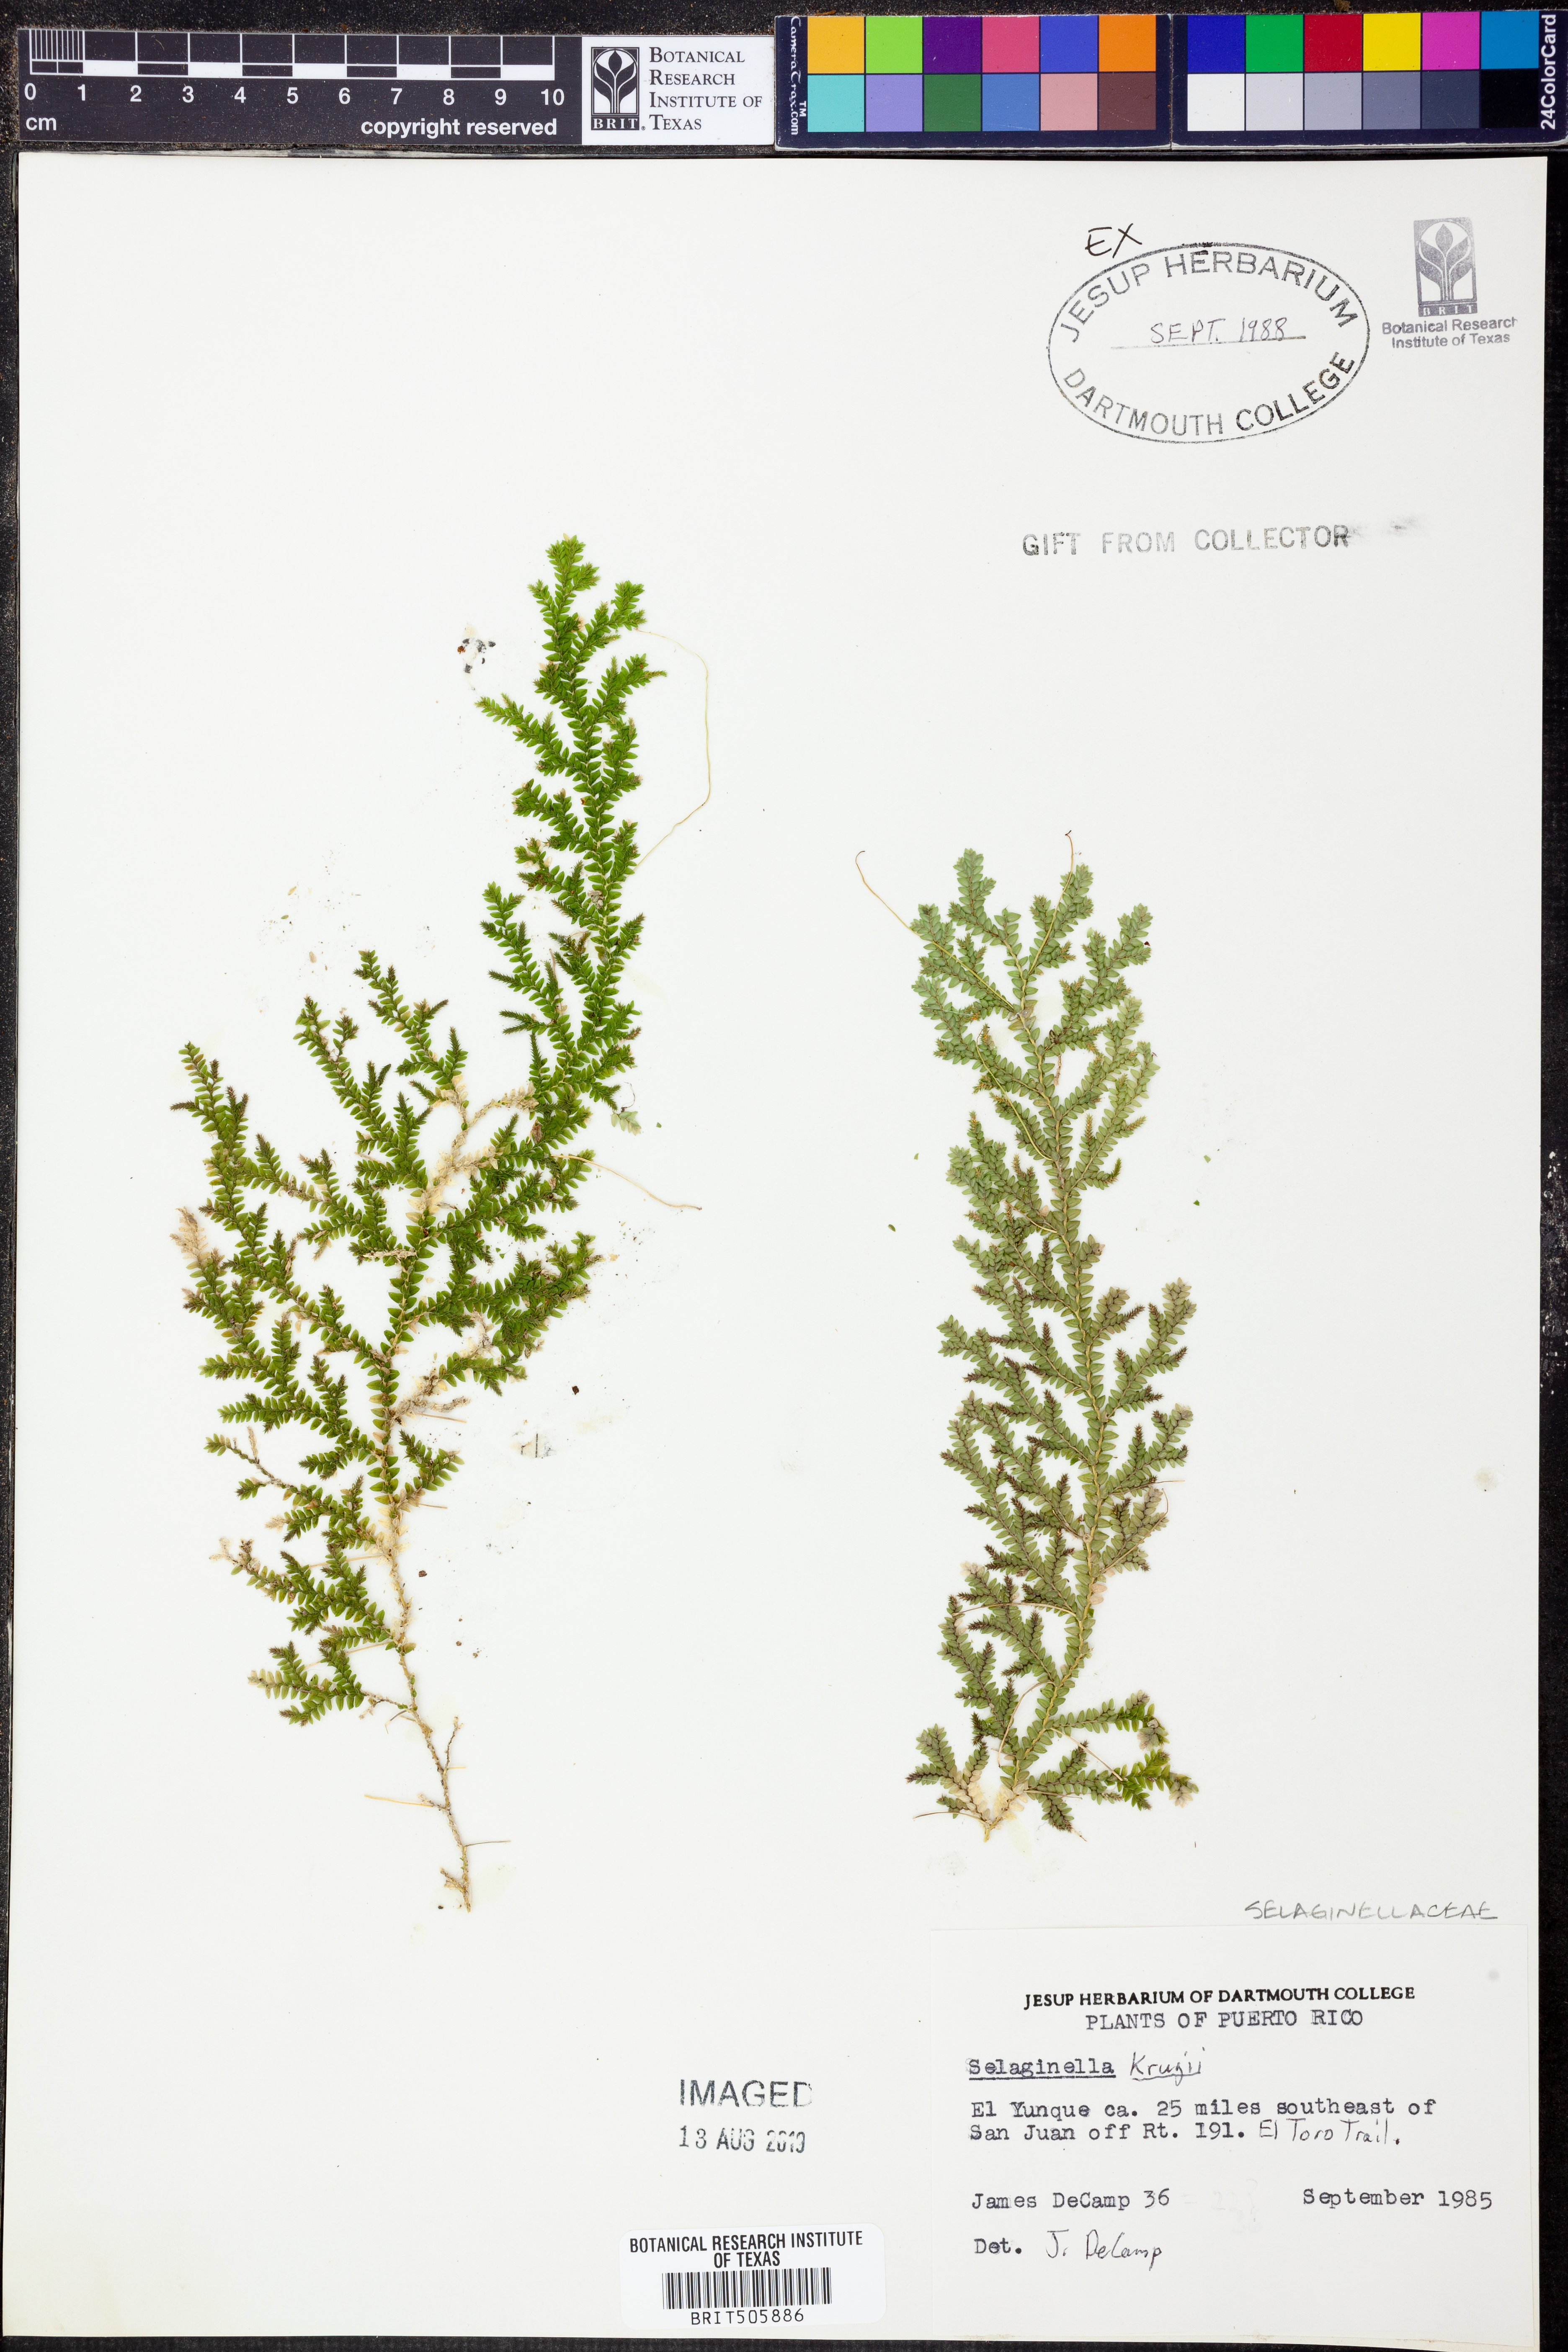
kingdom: Plantae
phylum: Tracheophyta
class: Lycopodiopsida
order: Selaginellales
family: Selaginellaceae
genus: Selaginella
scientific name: Selaginella krugii
